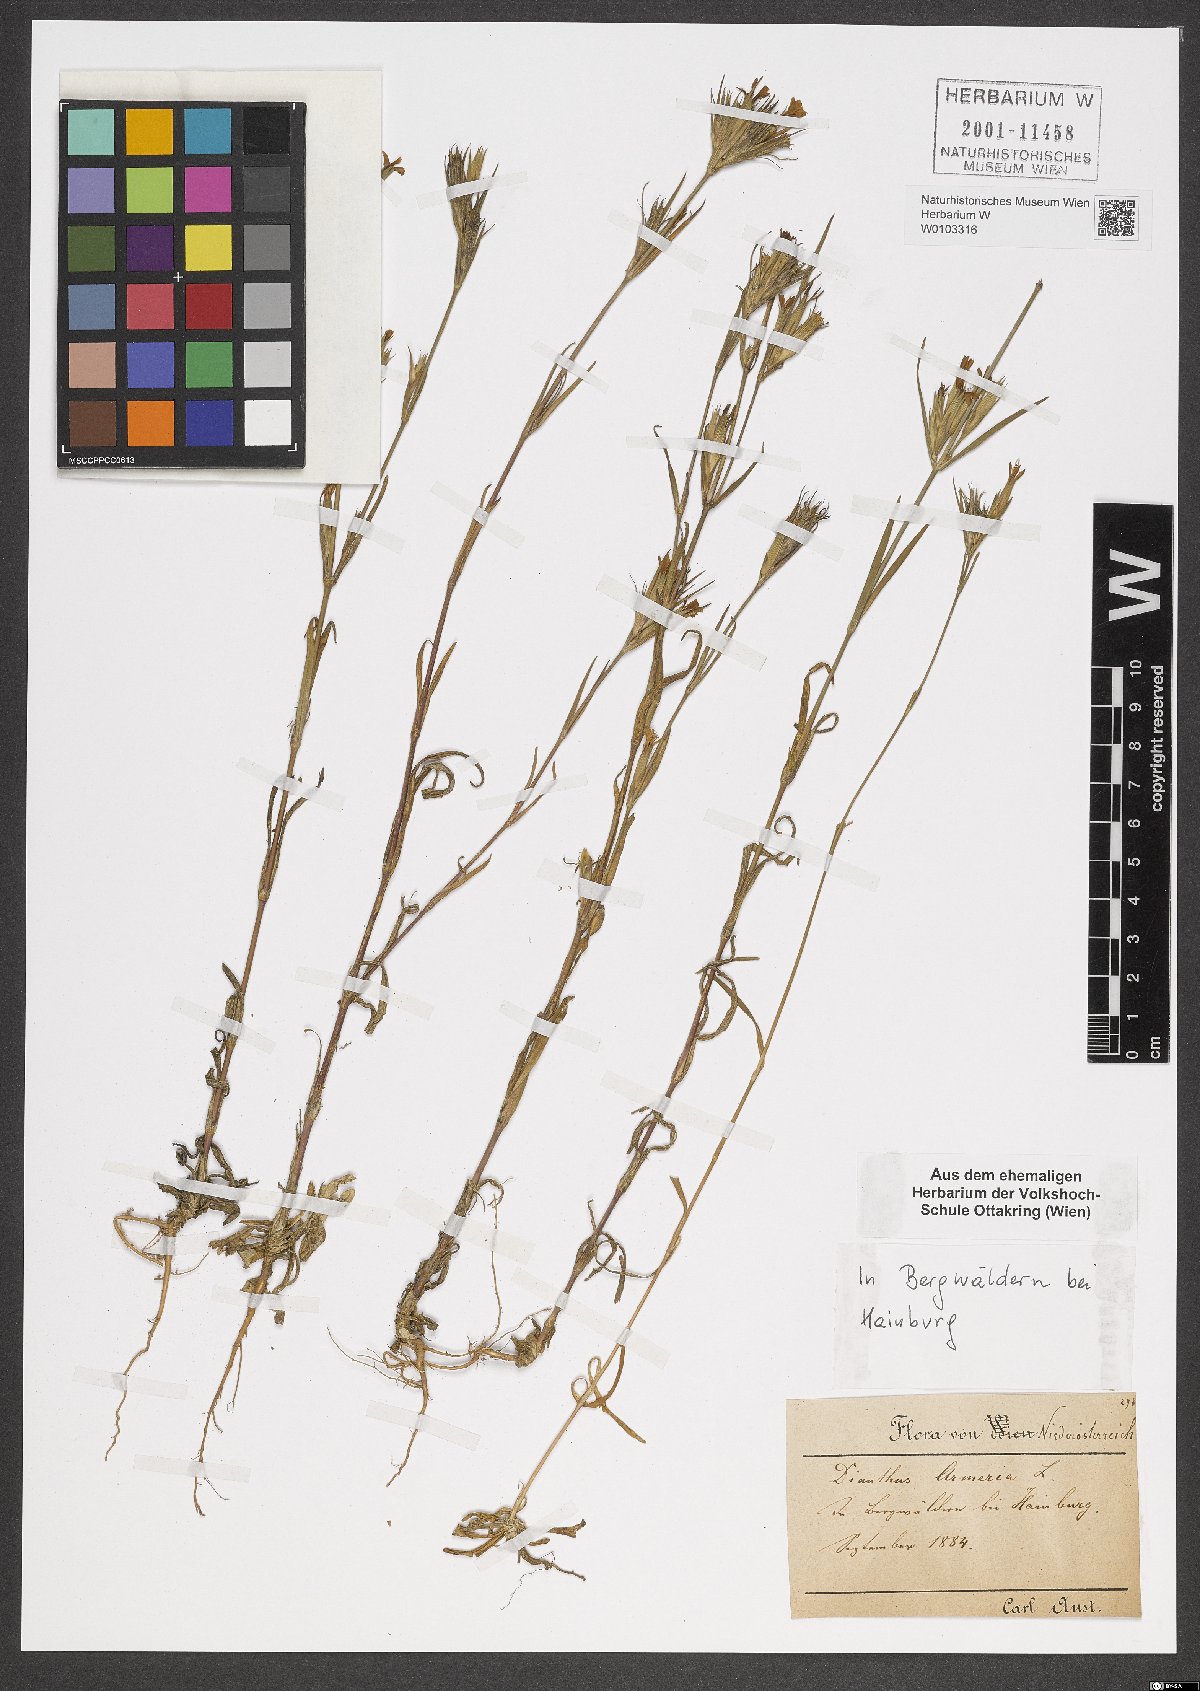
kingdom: Plantae
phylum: Tracheophyta
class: Magnoliopsida
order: Caryophyllales
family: Caryophyllaceae
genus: Dianthus
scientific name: Dianthus armeria
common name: Deptford pink
